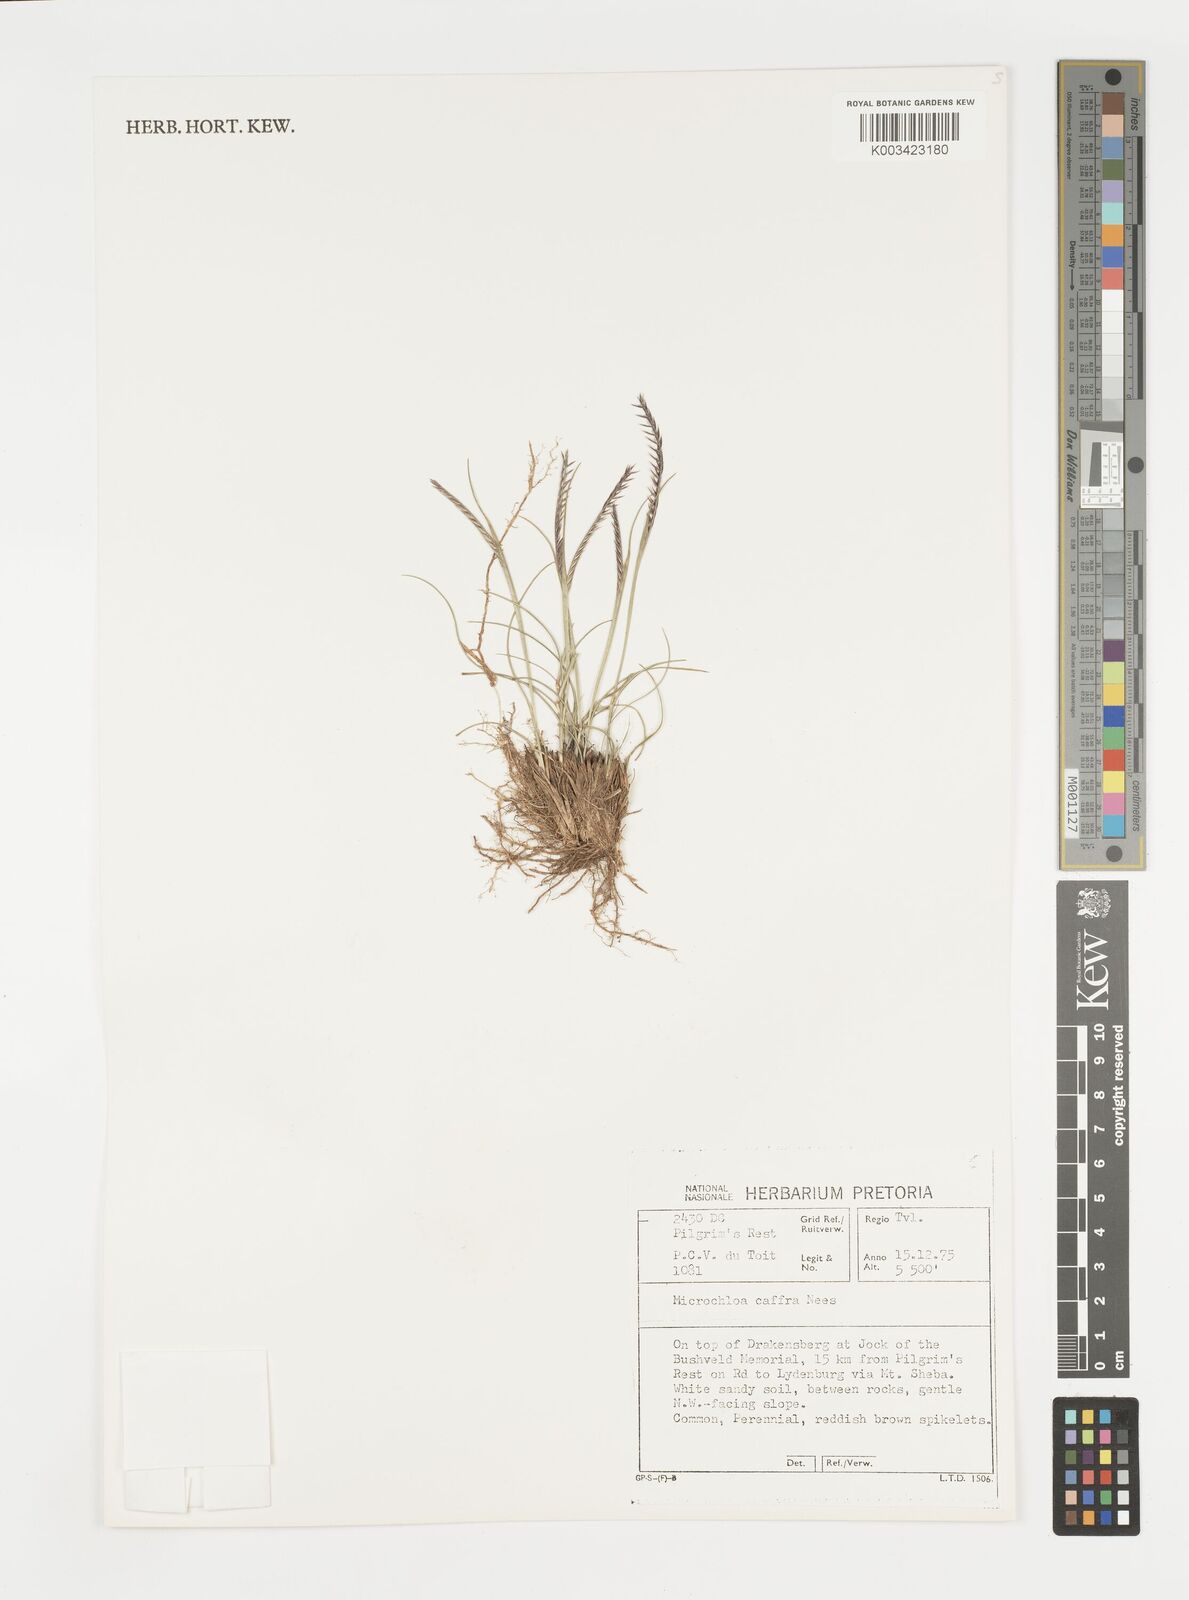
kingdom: Plantae
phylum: Tracheophyta
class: Liliopsida
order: Poales
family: Poaceae
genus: Microchloa
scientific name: Microchloa caffra
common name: Pincushion grass
